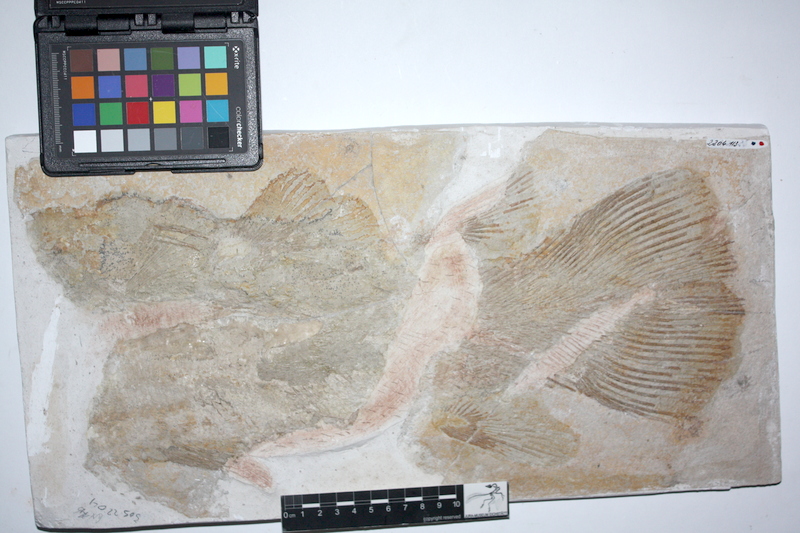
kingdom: Animalia
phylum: Chordata
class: Coelacanthi
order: Coelacanthiformes
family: Latimeroidea
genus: Macropoma
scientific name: Macropoma willemoesii
